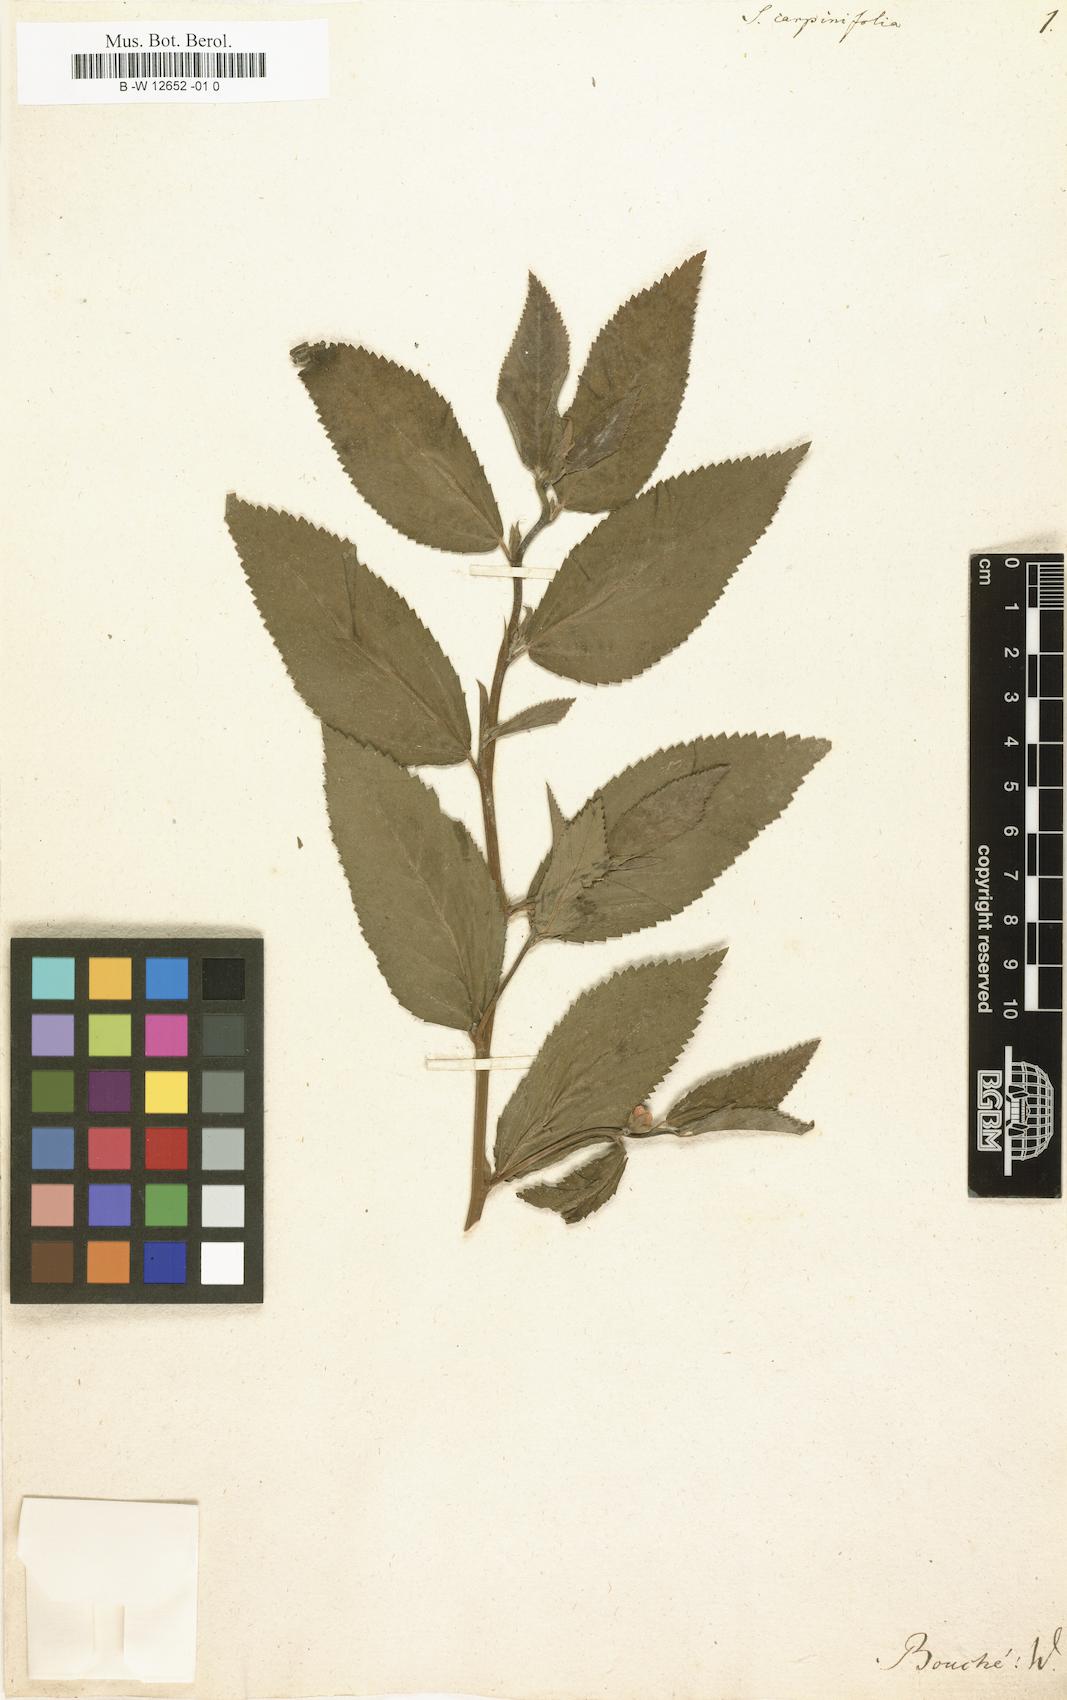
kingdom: Plantae
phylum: Tracheophyta
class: Magnoliopsida
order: Malvales
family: Malvaceae
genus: Sida
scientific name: Sida
